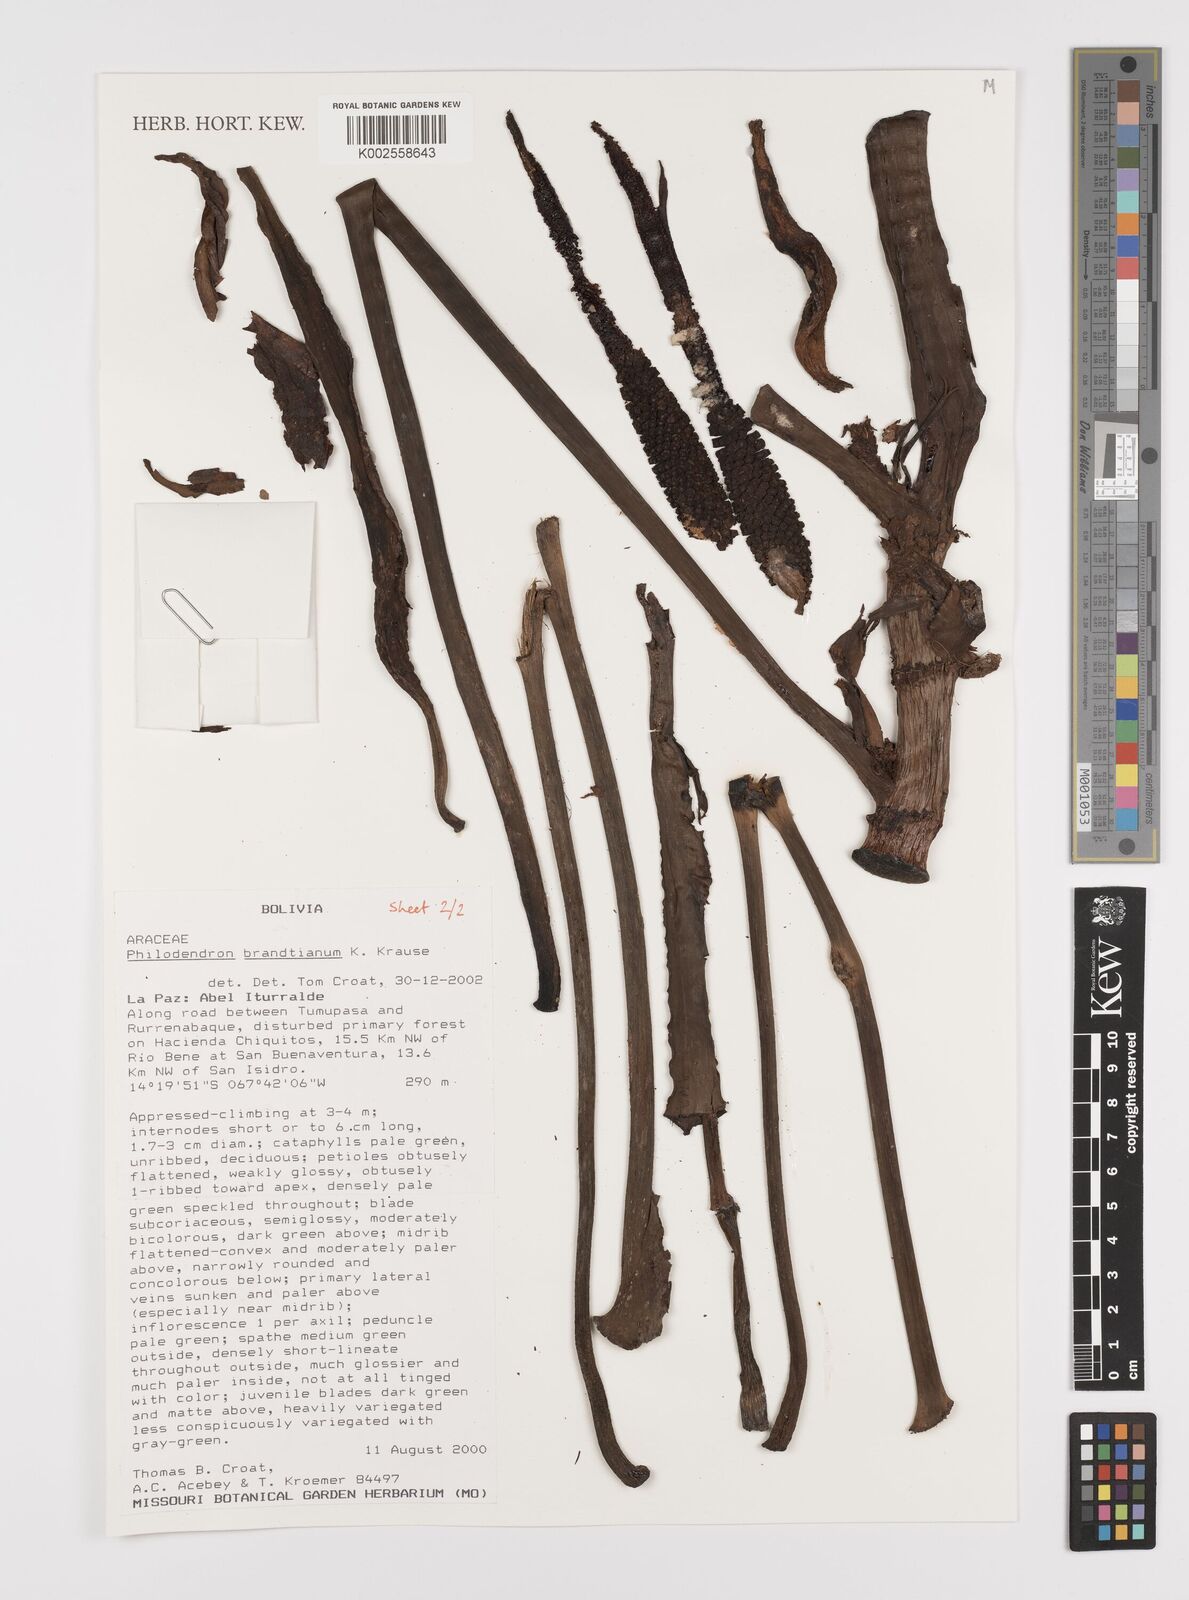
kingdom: Plantae
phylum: Tracheophyta
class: Liliopsida
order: Alismatales
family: Araceae
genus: Philodendron
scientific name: Philodendron brandtianum
